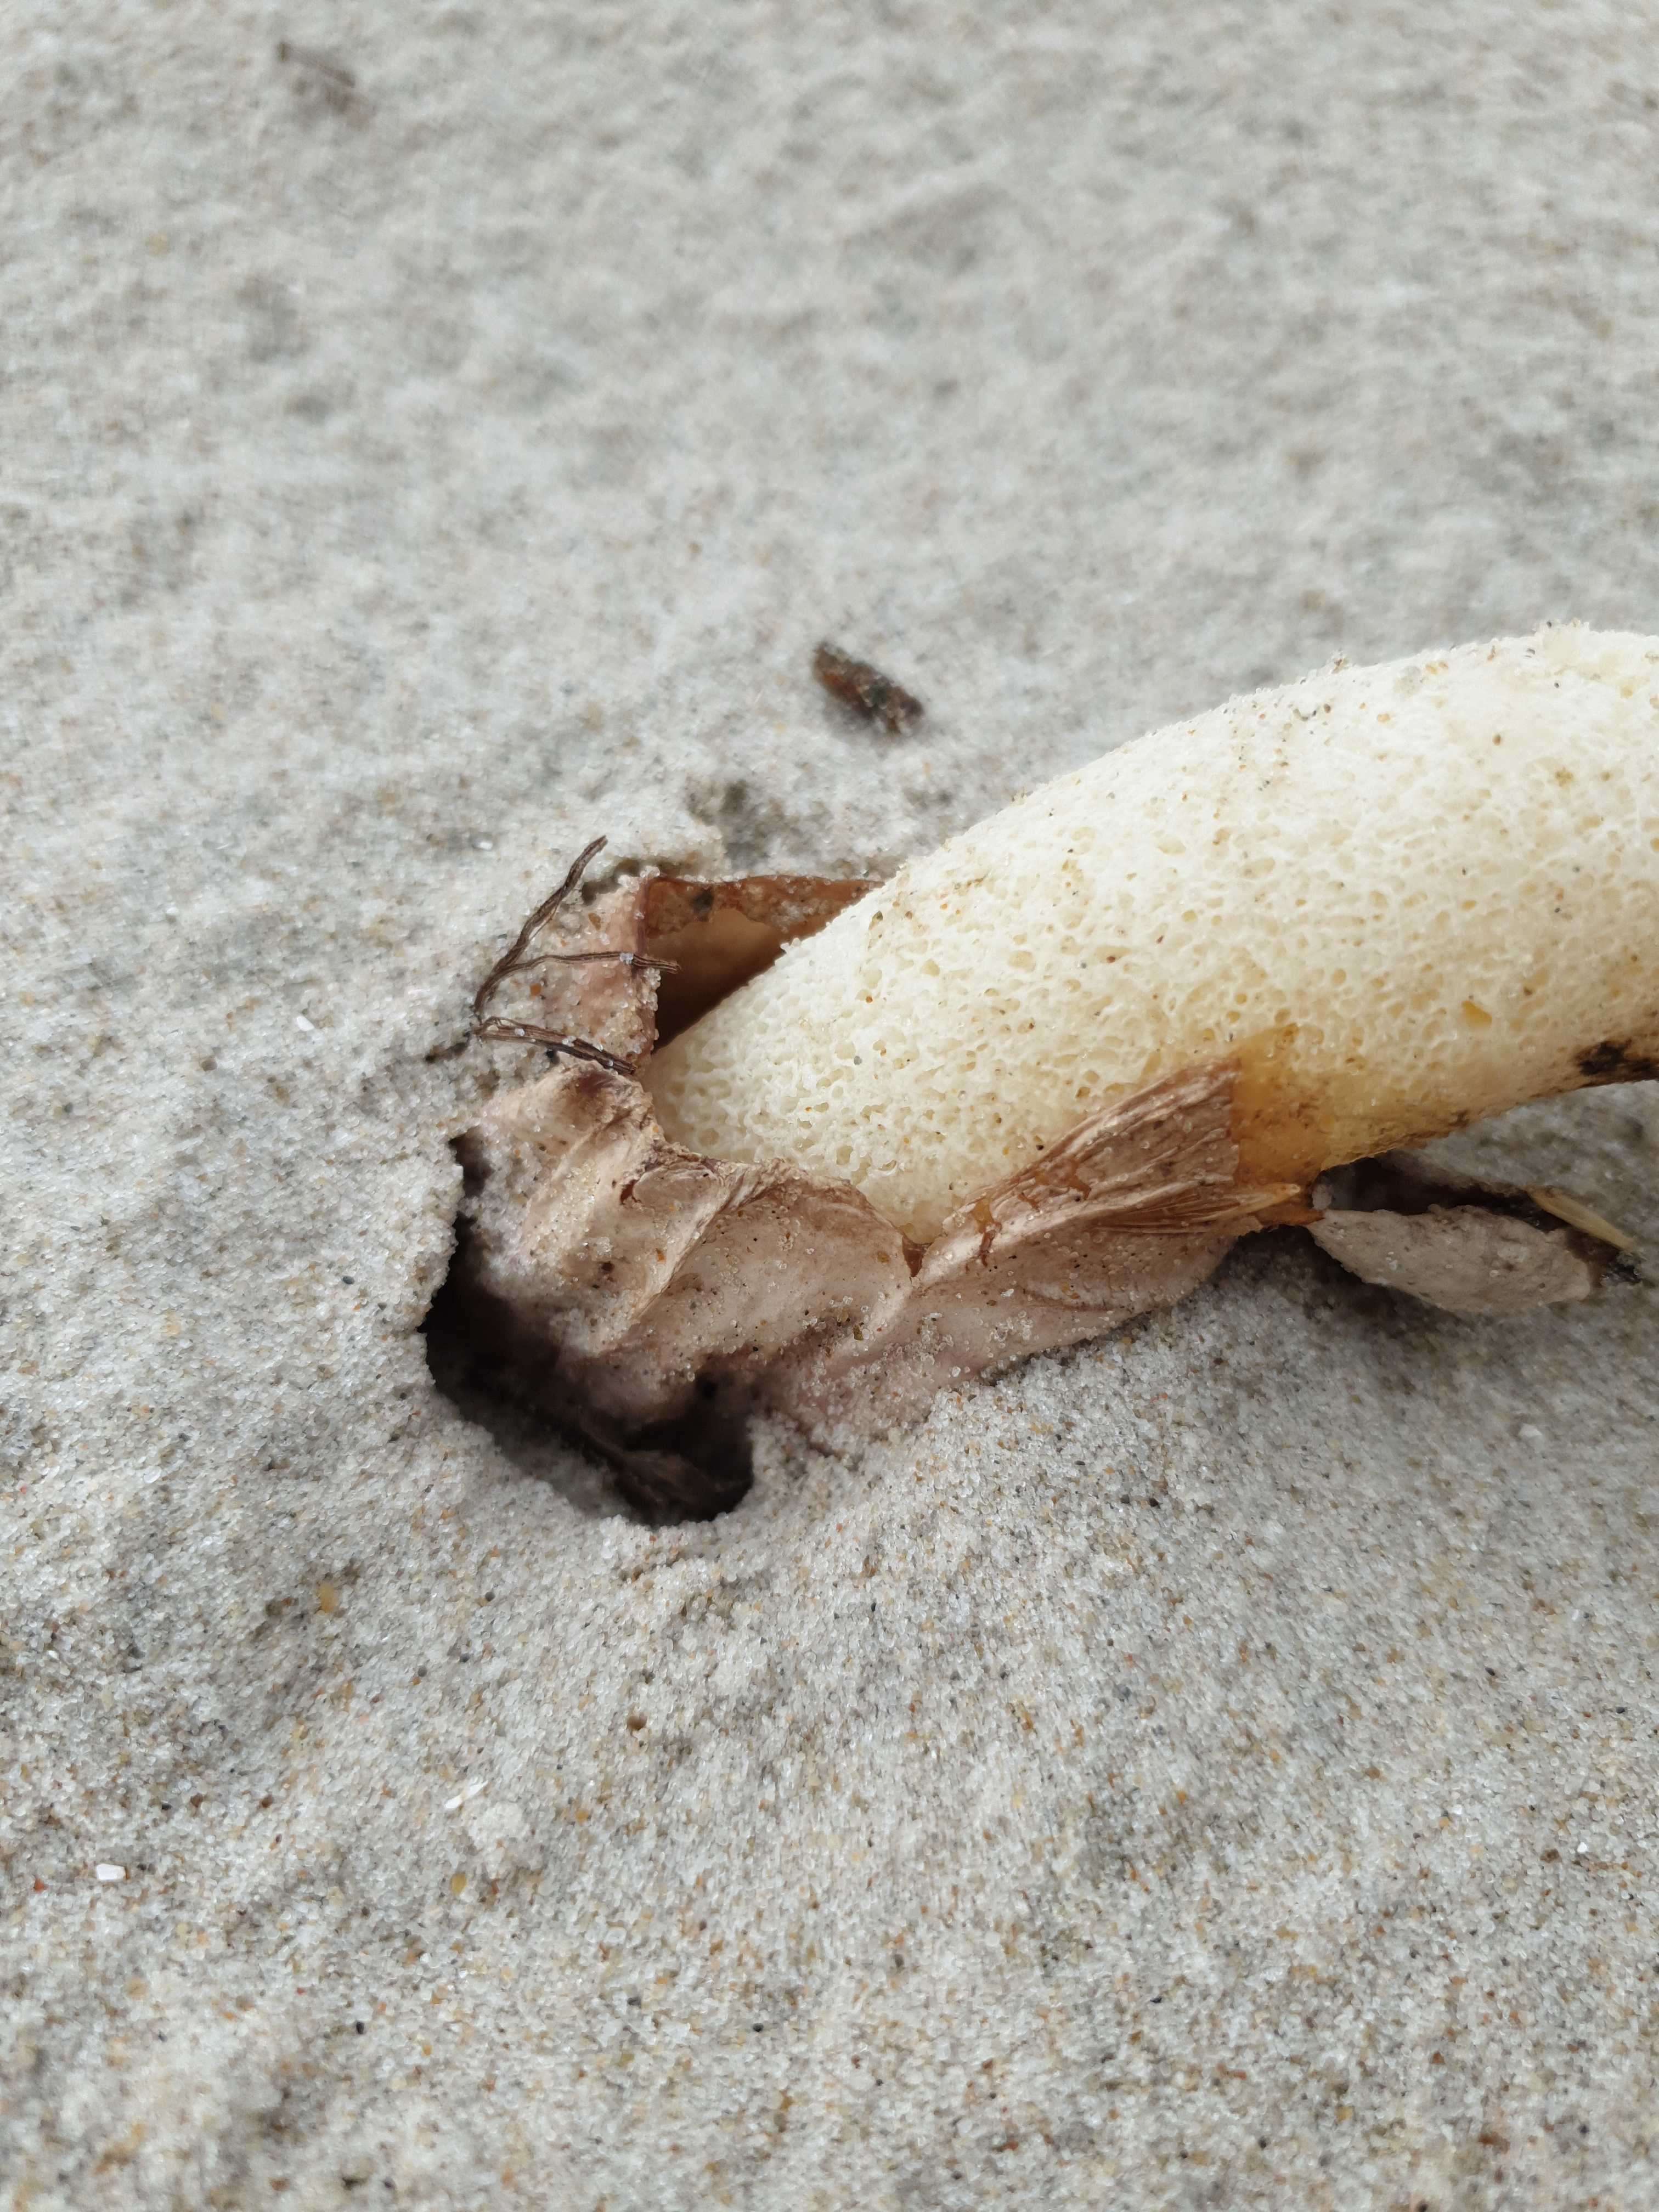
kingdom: Fungi
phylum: Basidiomycota
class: Agaricomycetes
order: Phallales
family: Phallaceae
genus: Phallus
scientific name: Phallus hadriani
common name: sand-stinksvamp
